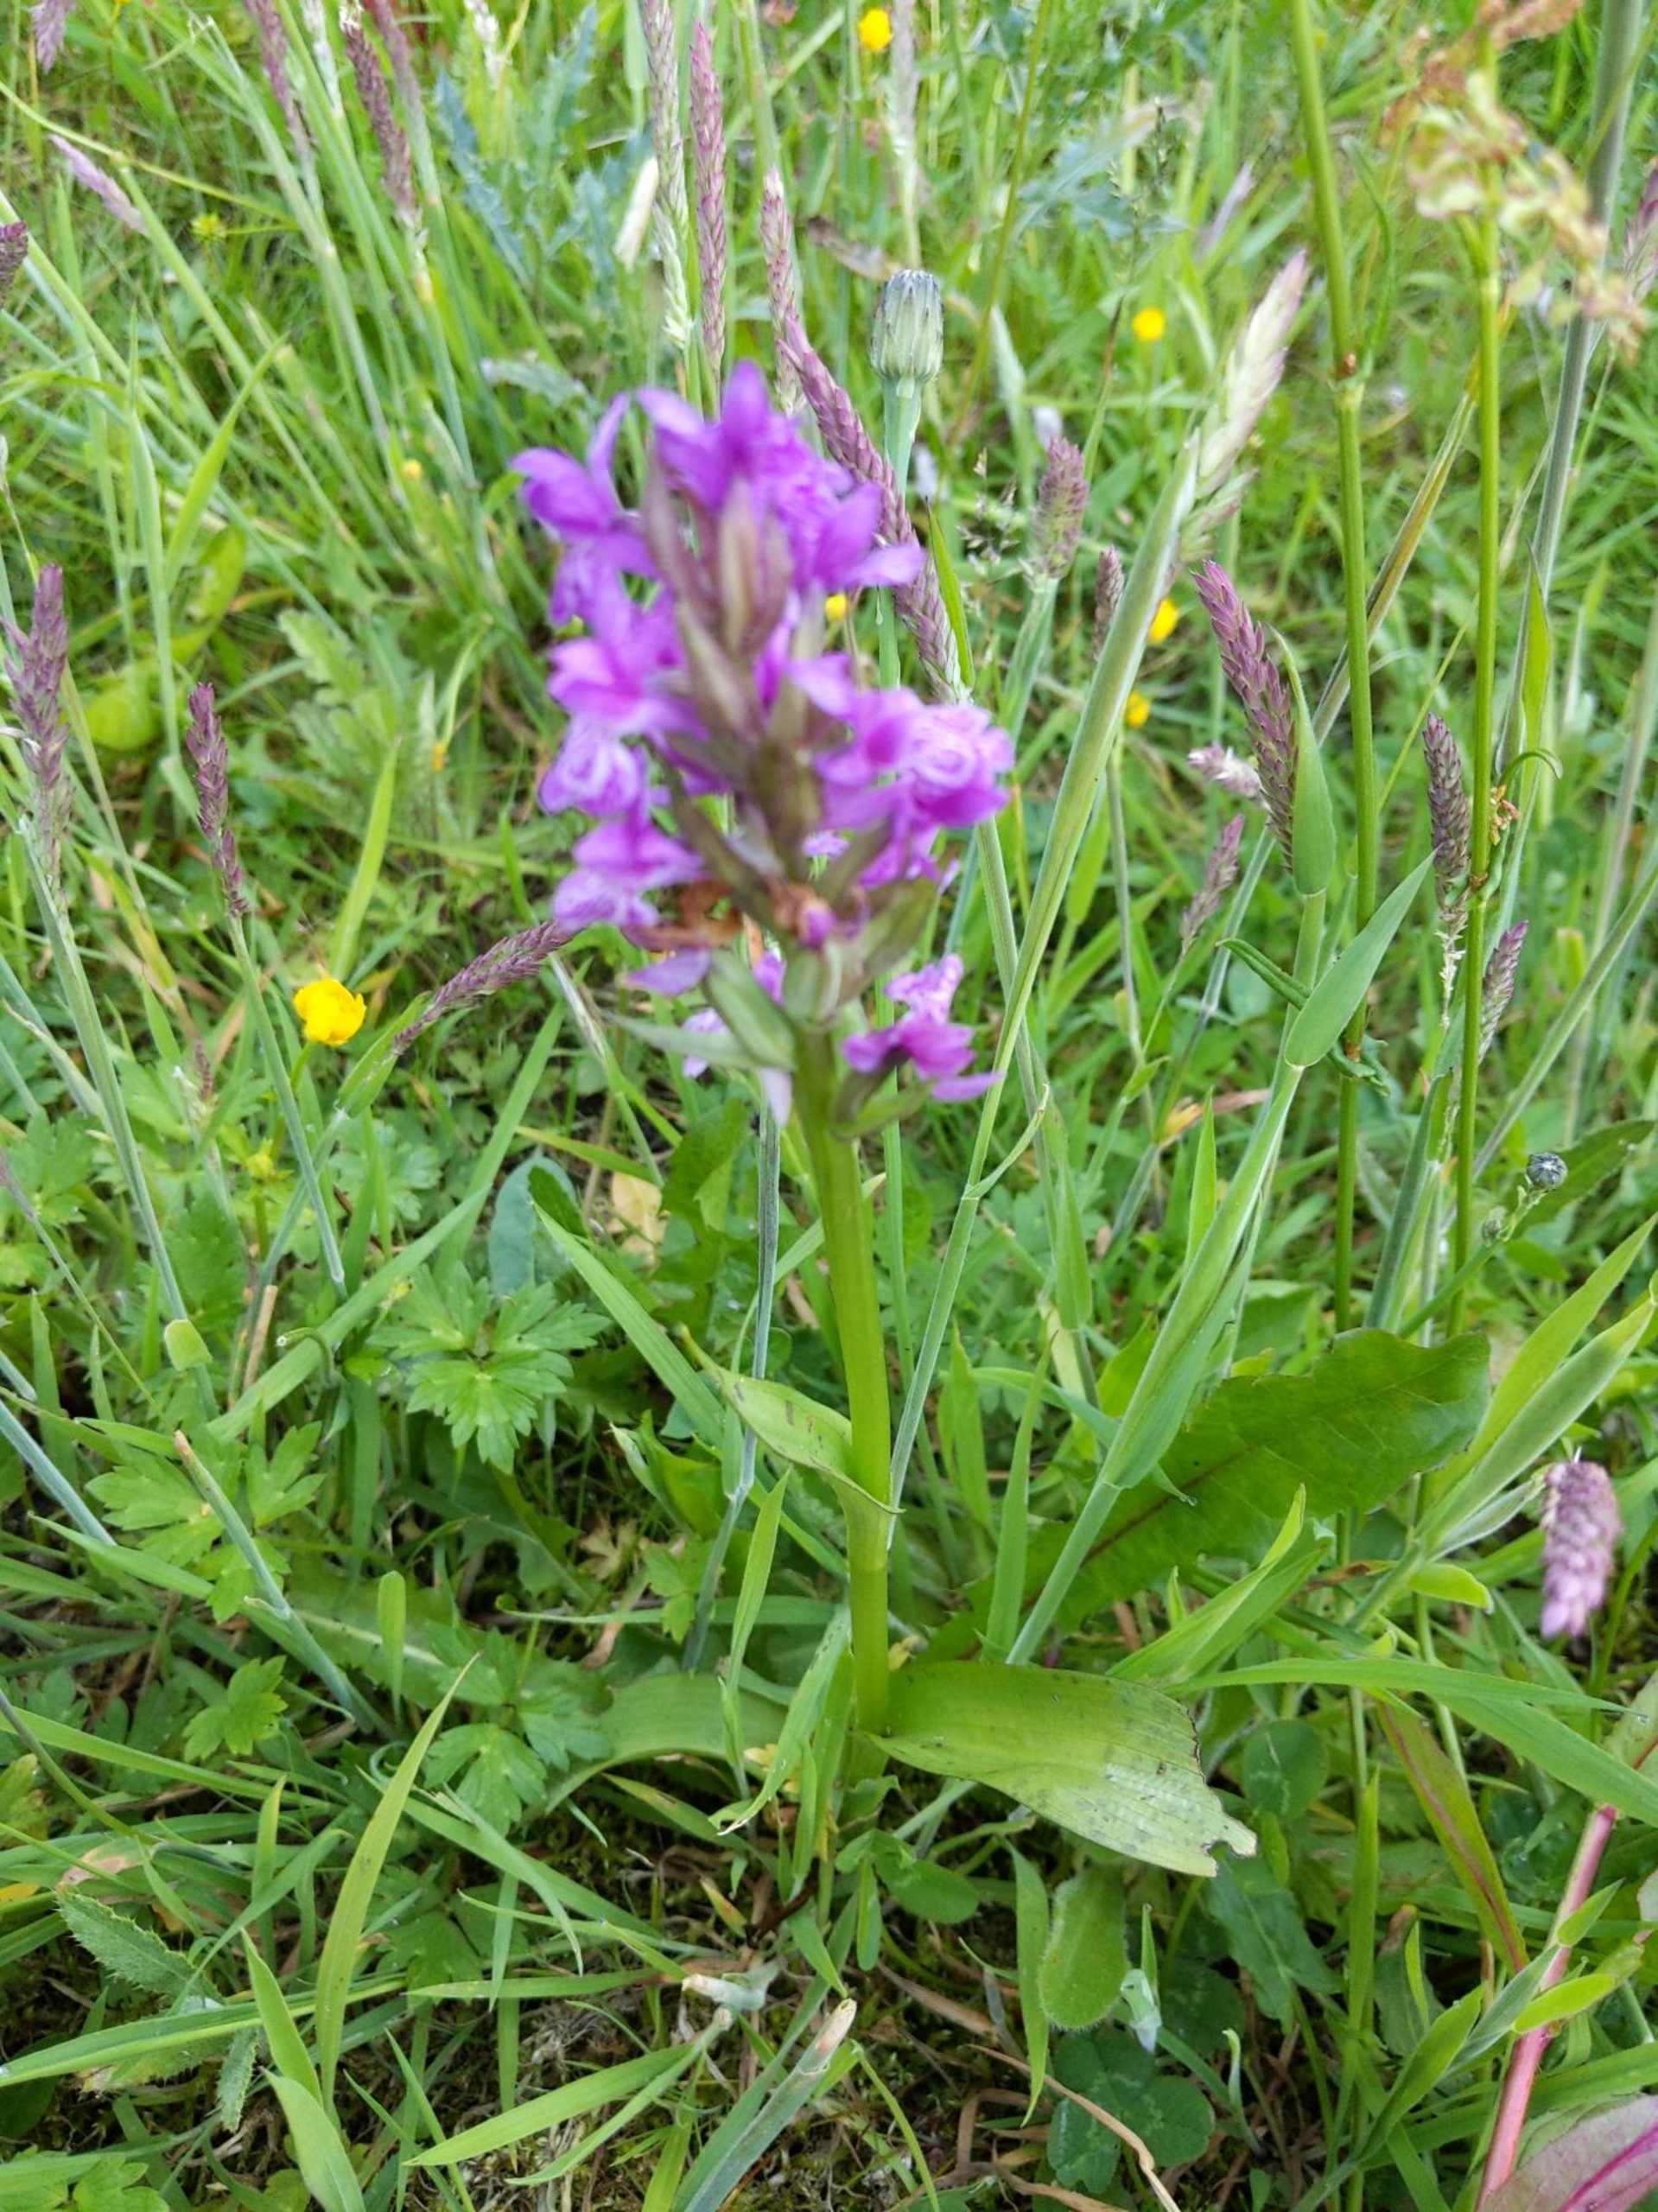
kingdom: Plantae
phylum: Tracheophyta
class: Liliopsida
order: Asparagales
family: Orchidaceae
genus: Dactylorhiza
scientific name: Dactylorhiza majalis
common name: Maj-gøgeurt
